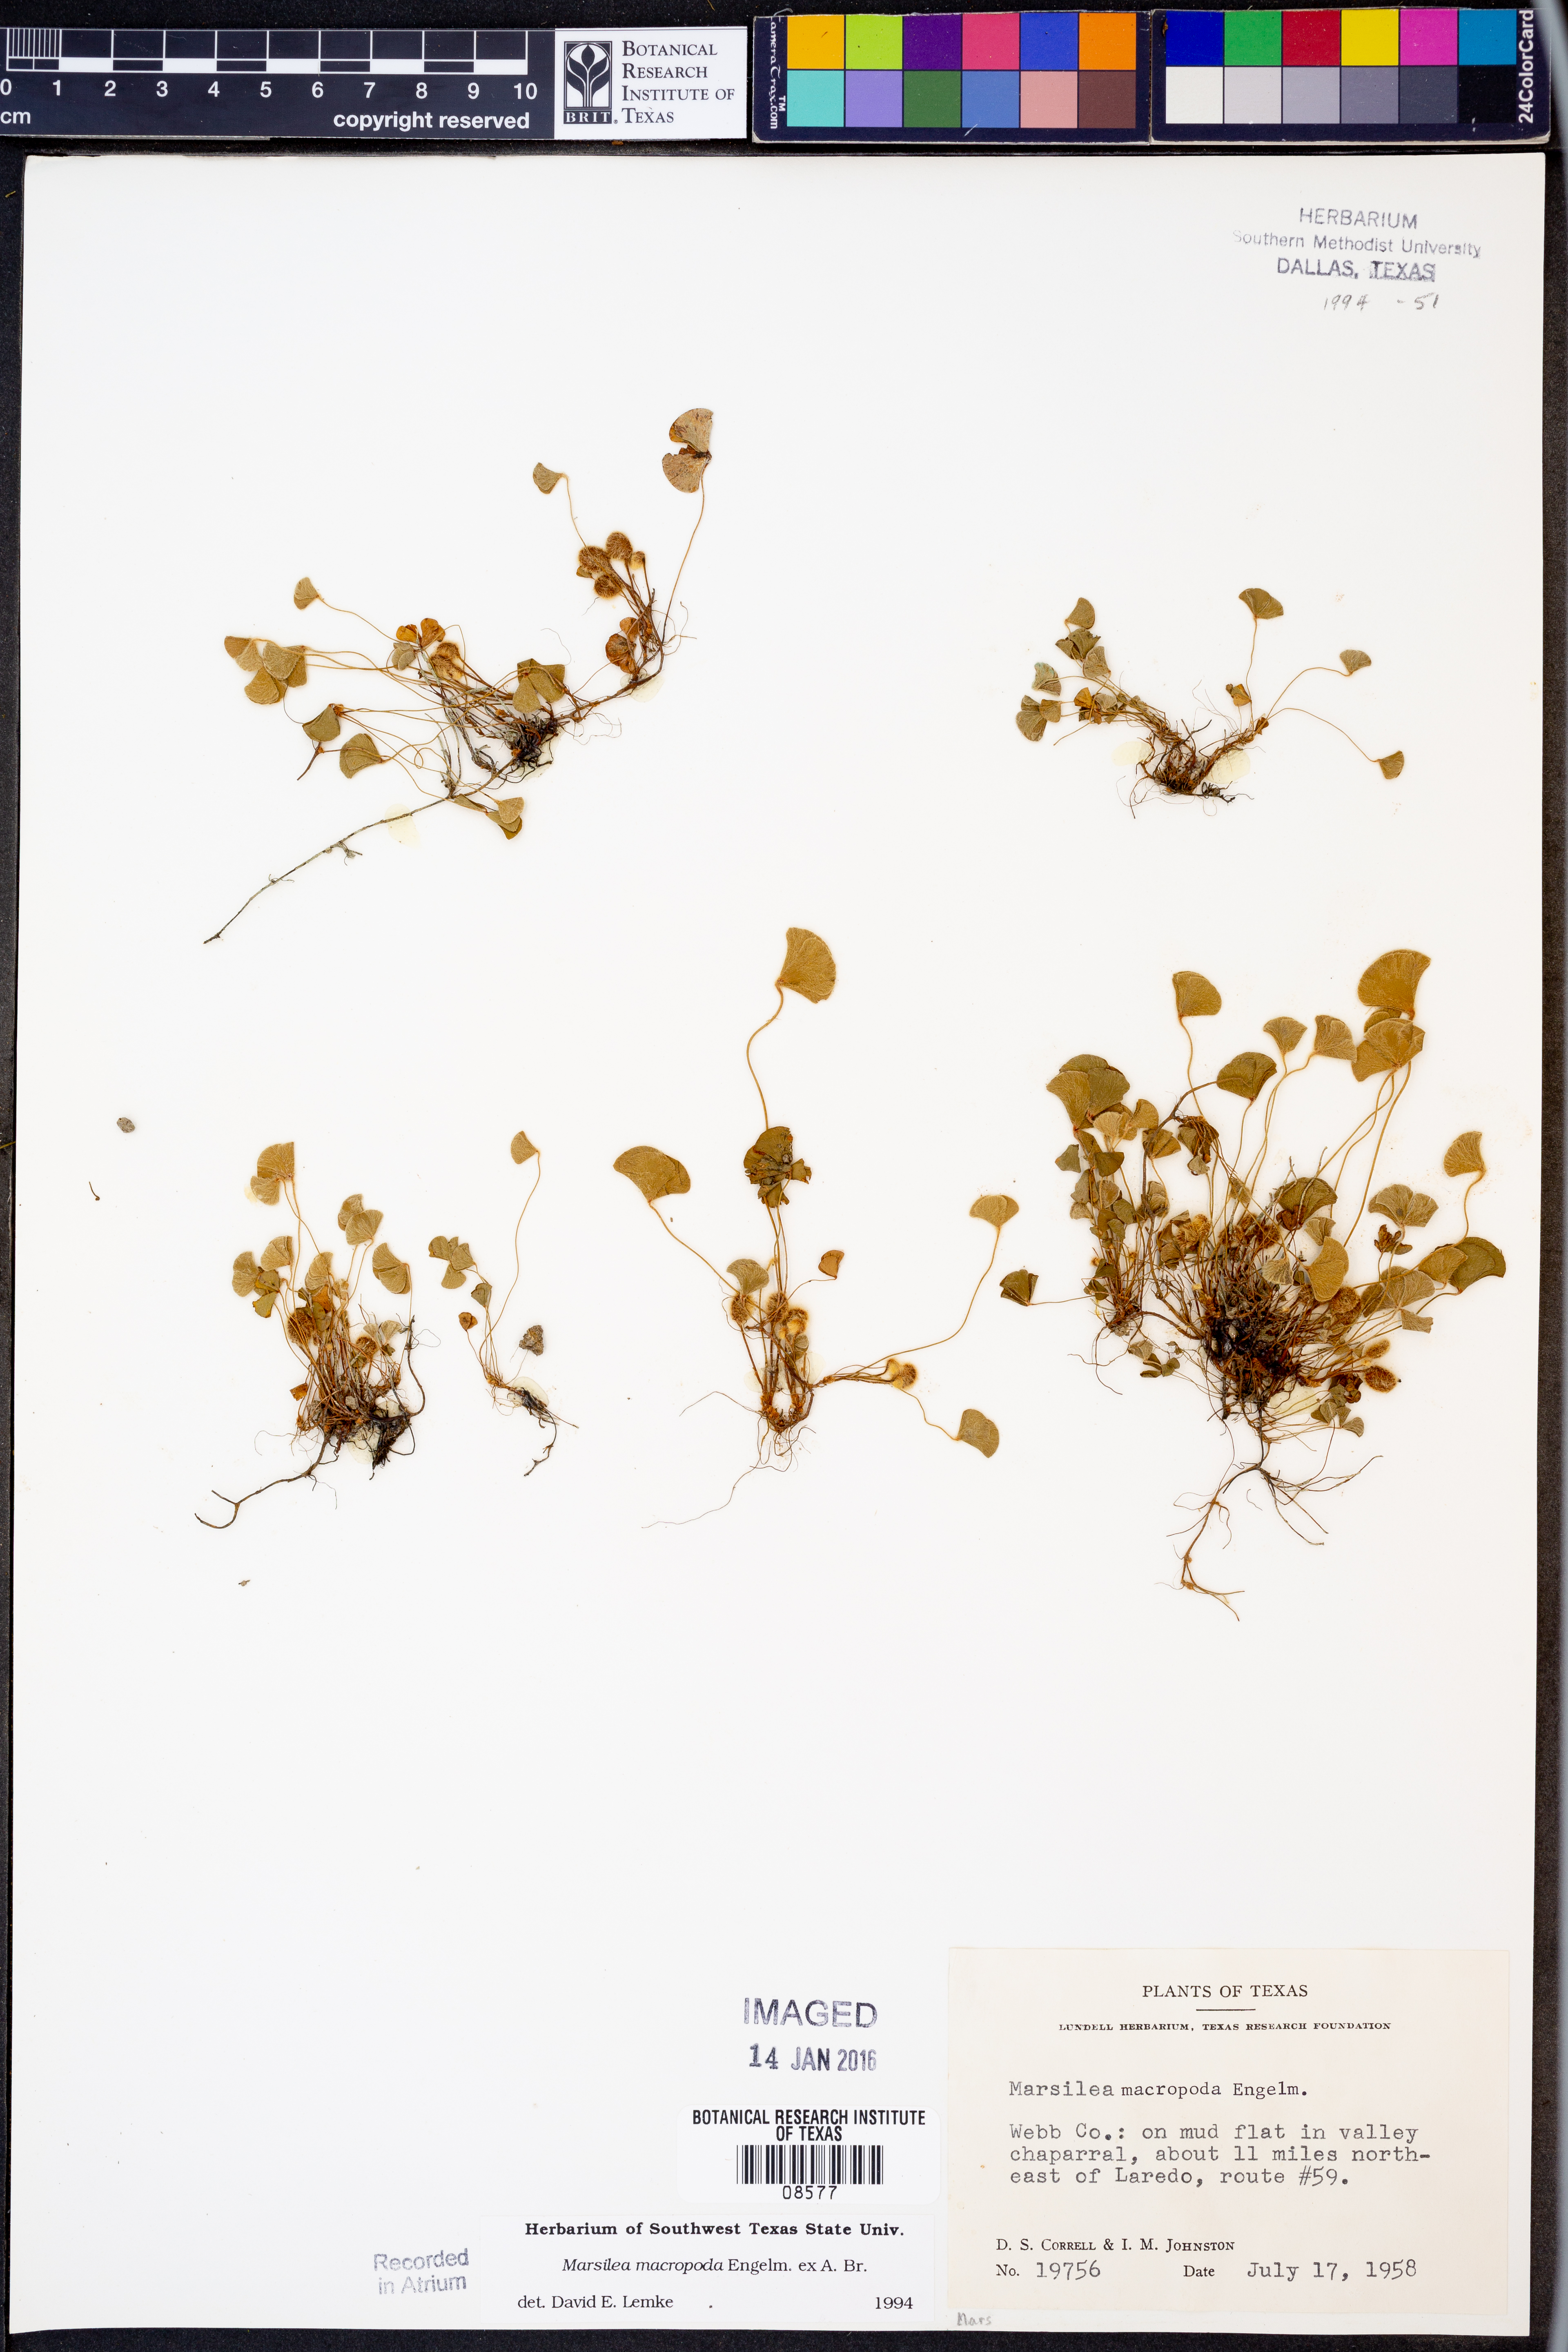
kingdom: Plantae
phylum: Tracheophyta
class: Polypodiopsida
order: Salviniales
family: Marsileaceae
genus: Marsilea
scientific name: Marsilea macropoda
